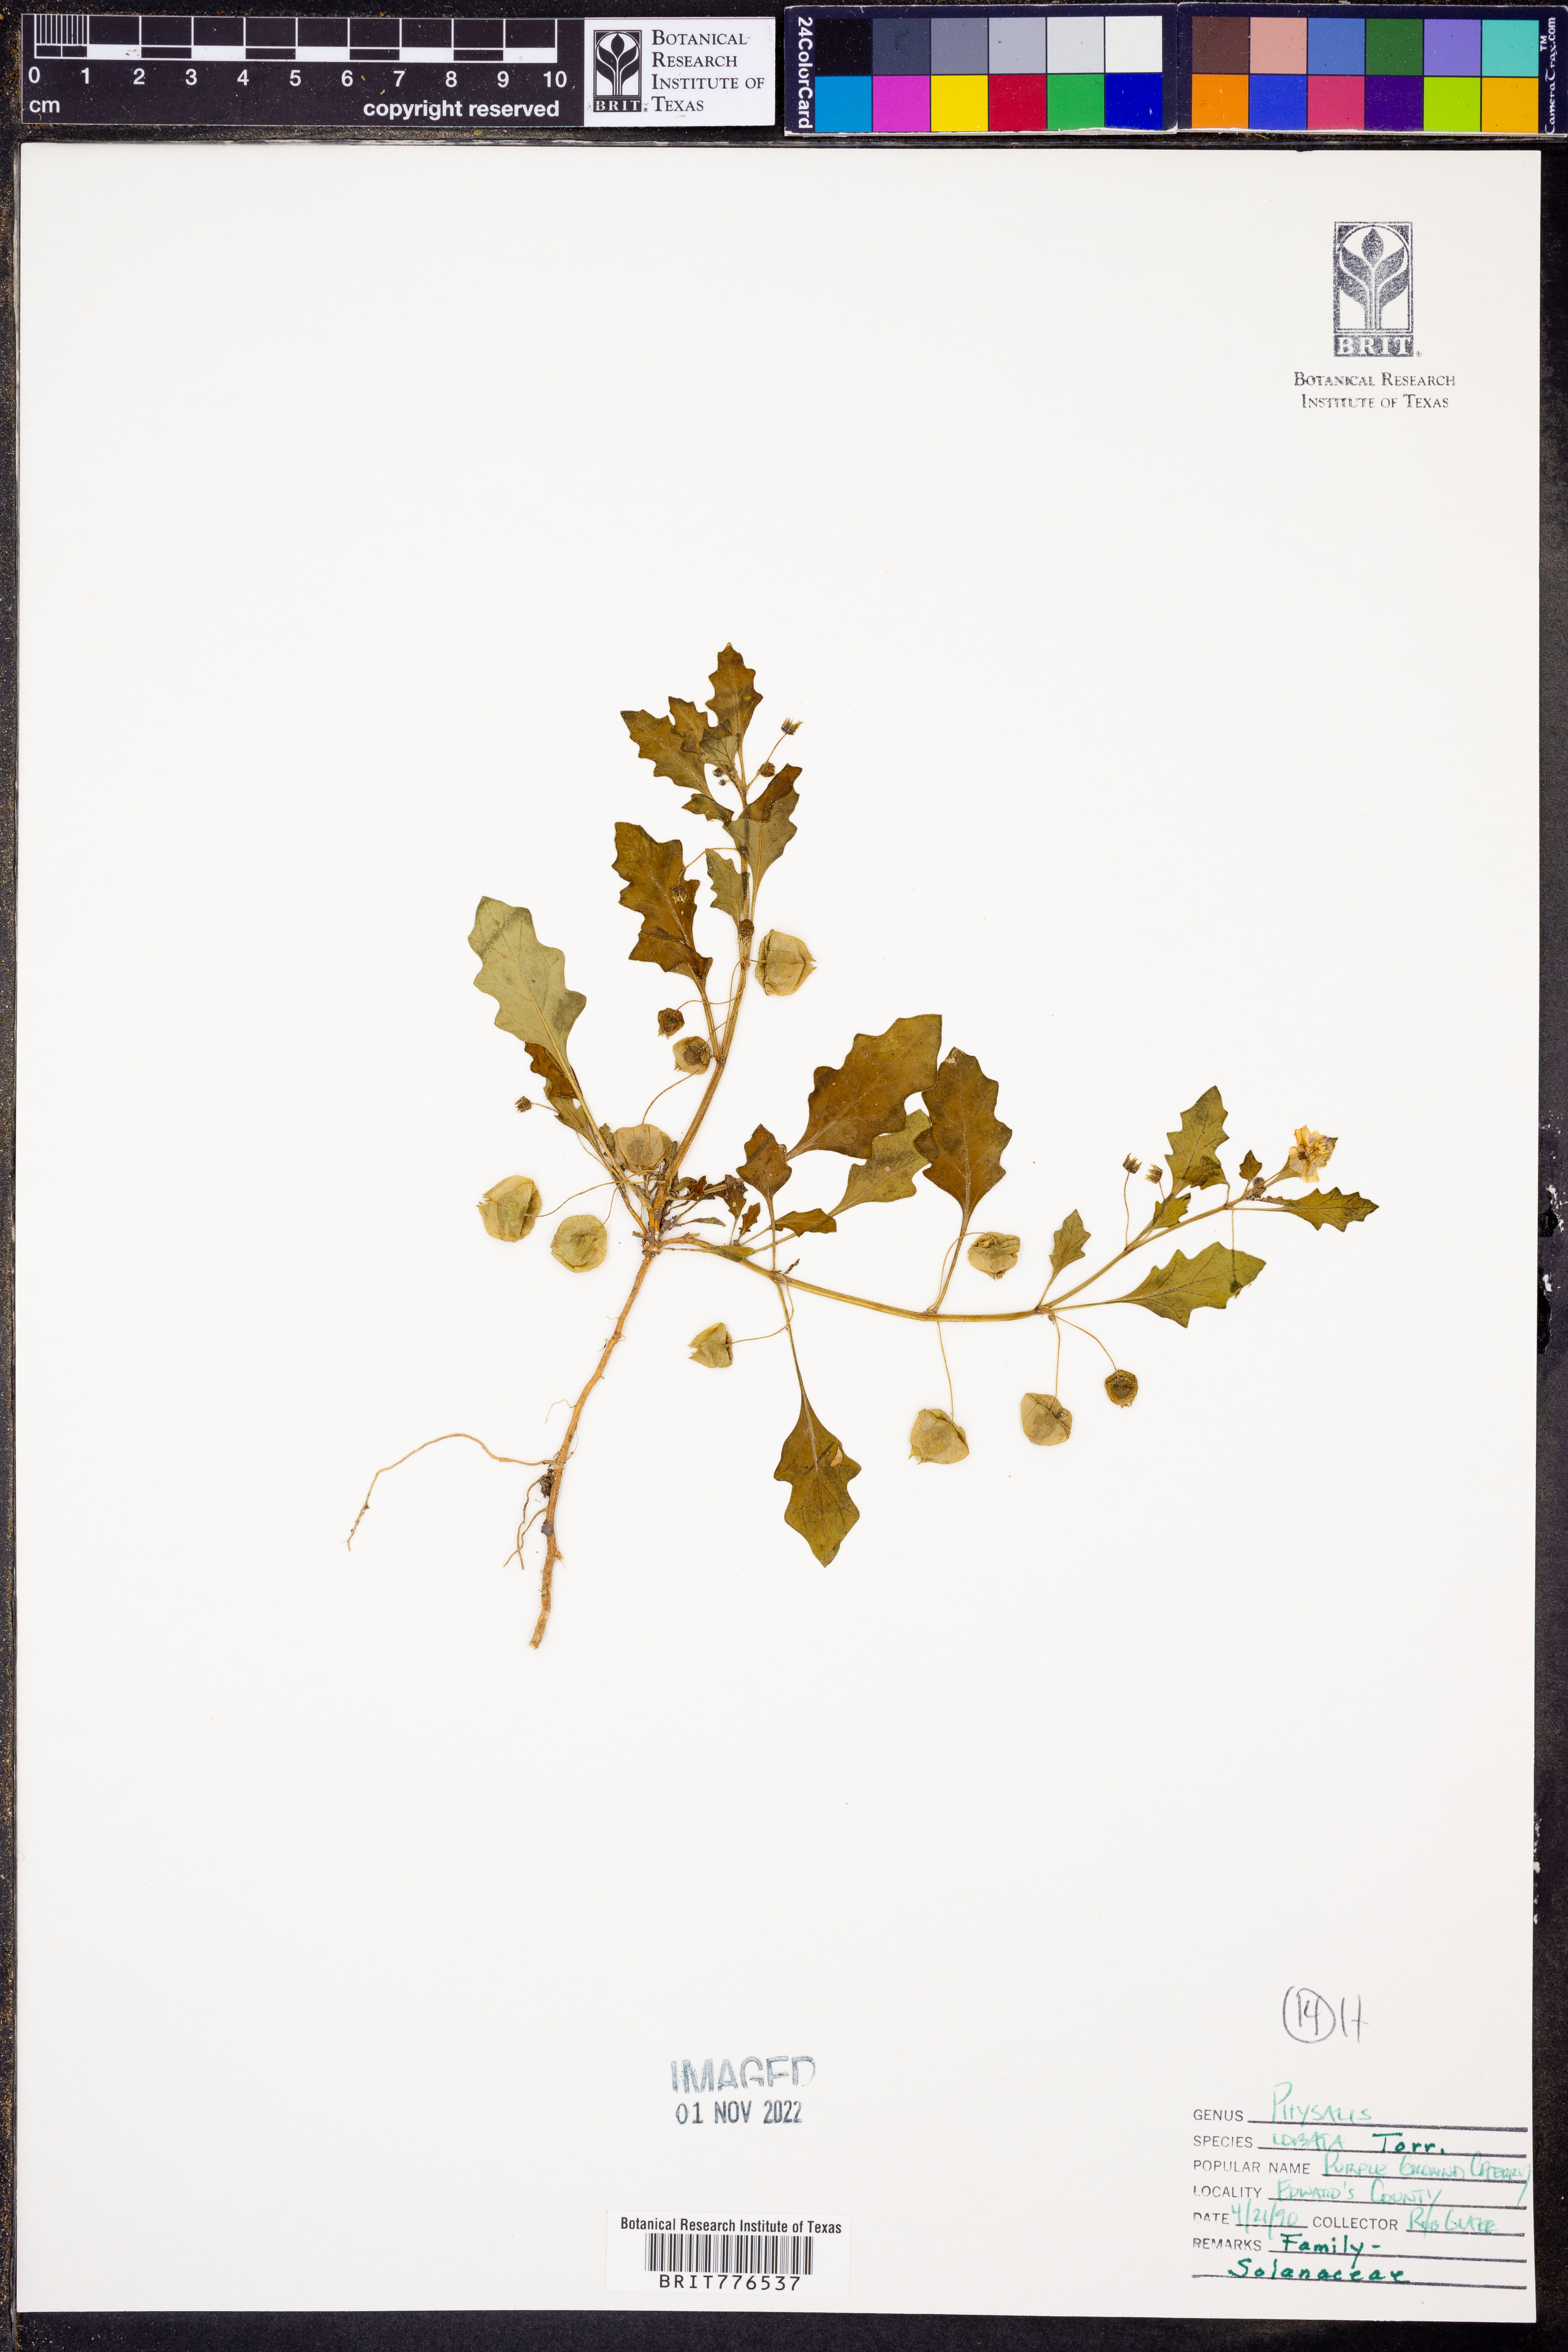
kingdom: Plantae
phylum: Tracheophyta
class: Magnoliopsida
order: Solanales
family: Solanaceae
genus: Quincula
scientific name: Quincula lobata
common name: Purple-ground-cherry
